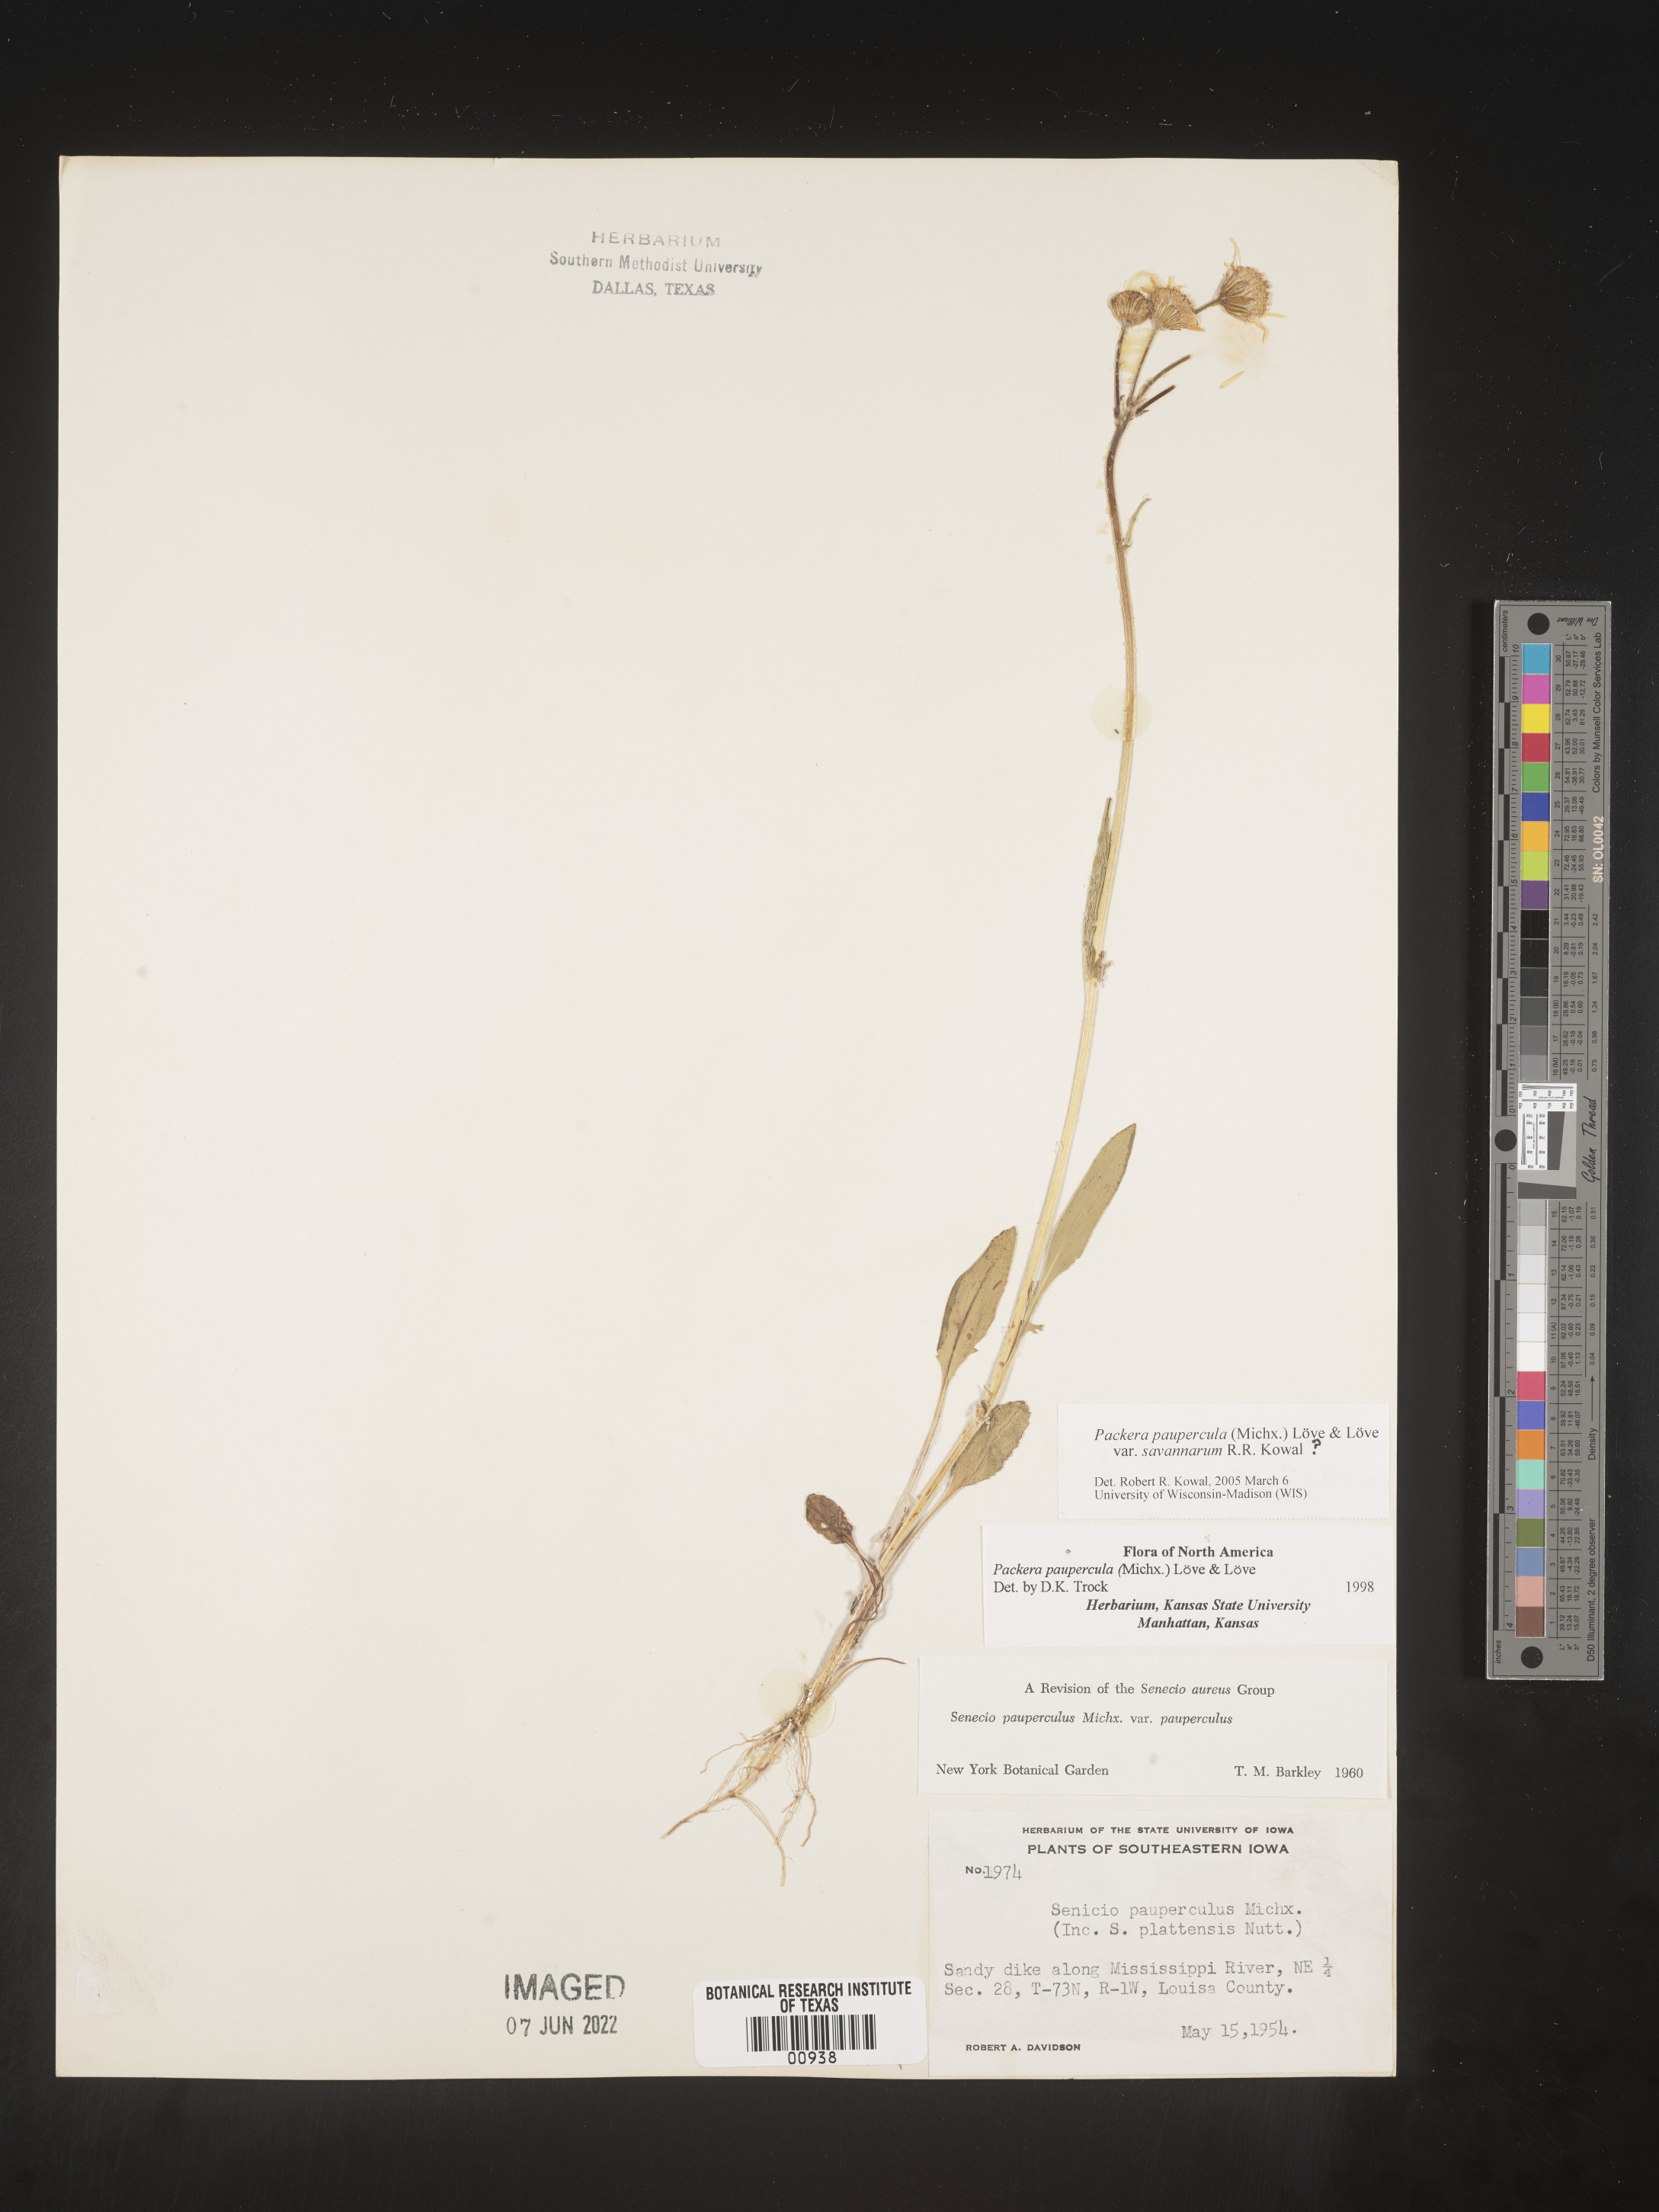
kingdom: Plantae
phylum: Tracheophyta
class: Magnoliopsida
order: Asterales
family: Asteraceae
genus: Packera
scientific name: Packera paupercula
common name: Balsam groundsel
